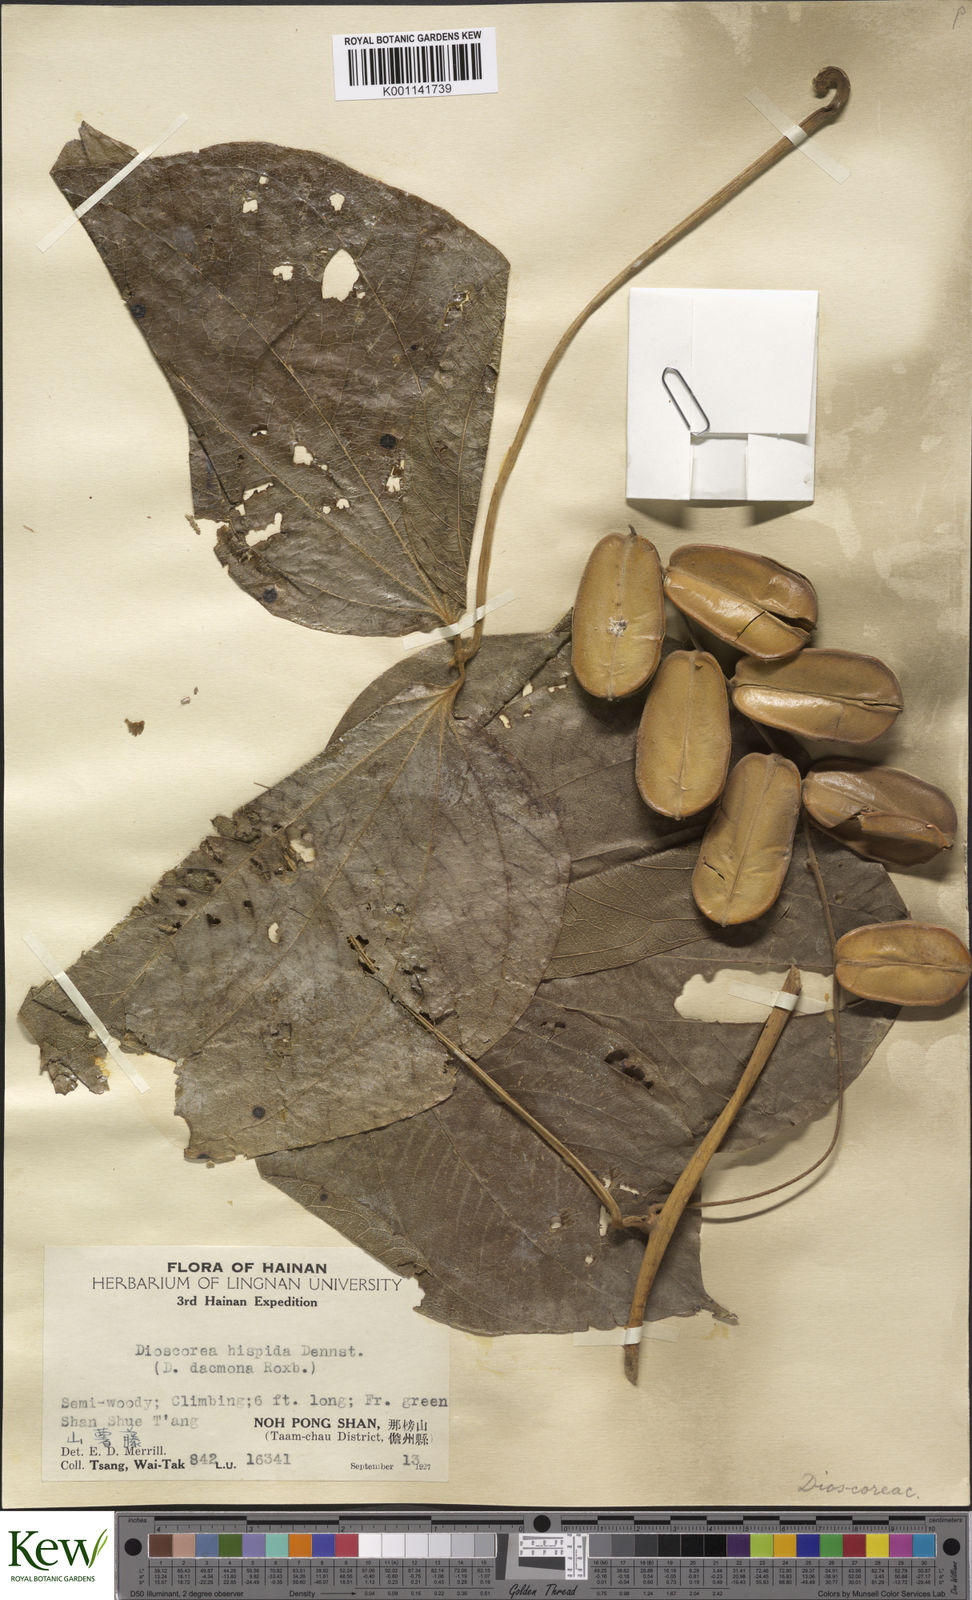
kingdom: Plantae
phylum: Tracheophyta
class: Liliopsida
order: Dioscoreales
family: Dioscoreaceae
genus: Dioscorea
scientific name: Dioscorea hispida
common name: Asiatic bitter yam
